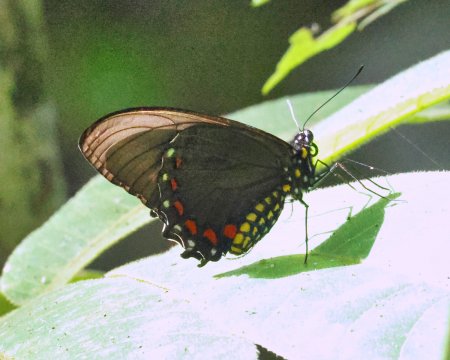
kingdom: Animalia
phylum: Arthropoda
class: Insecta
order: Lepidoptera
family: Papilionidae
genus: Battus
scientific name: Battus ingenuus
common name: Dyar's Swallowtail
